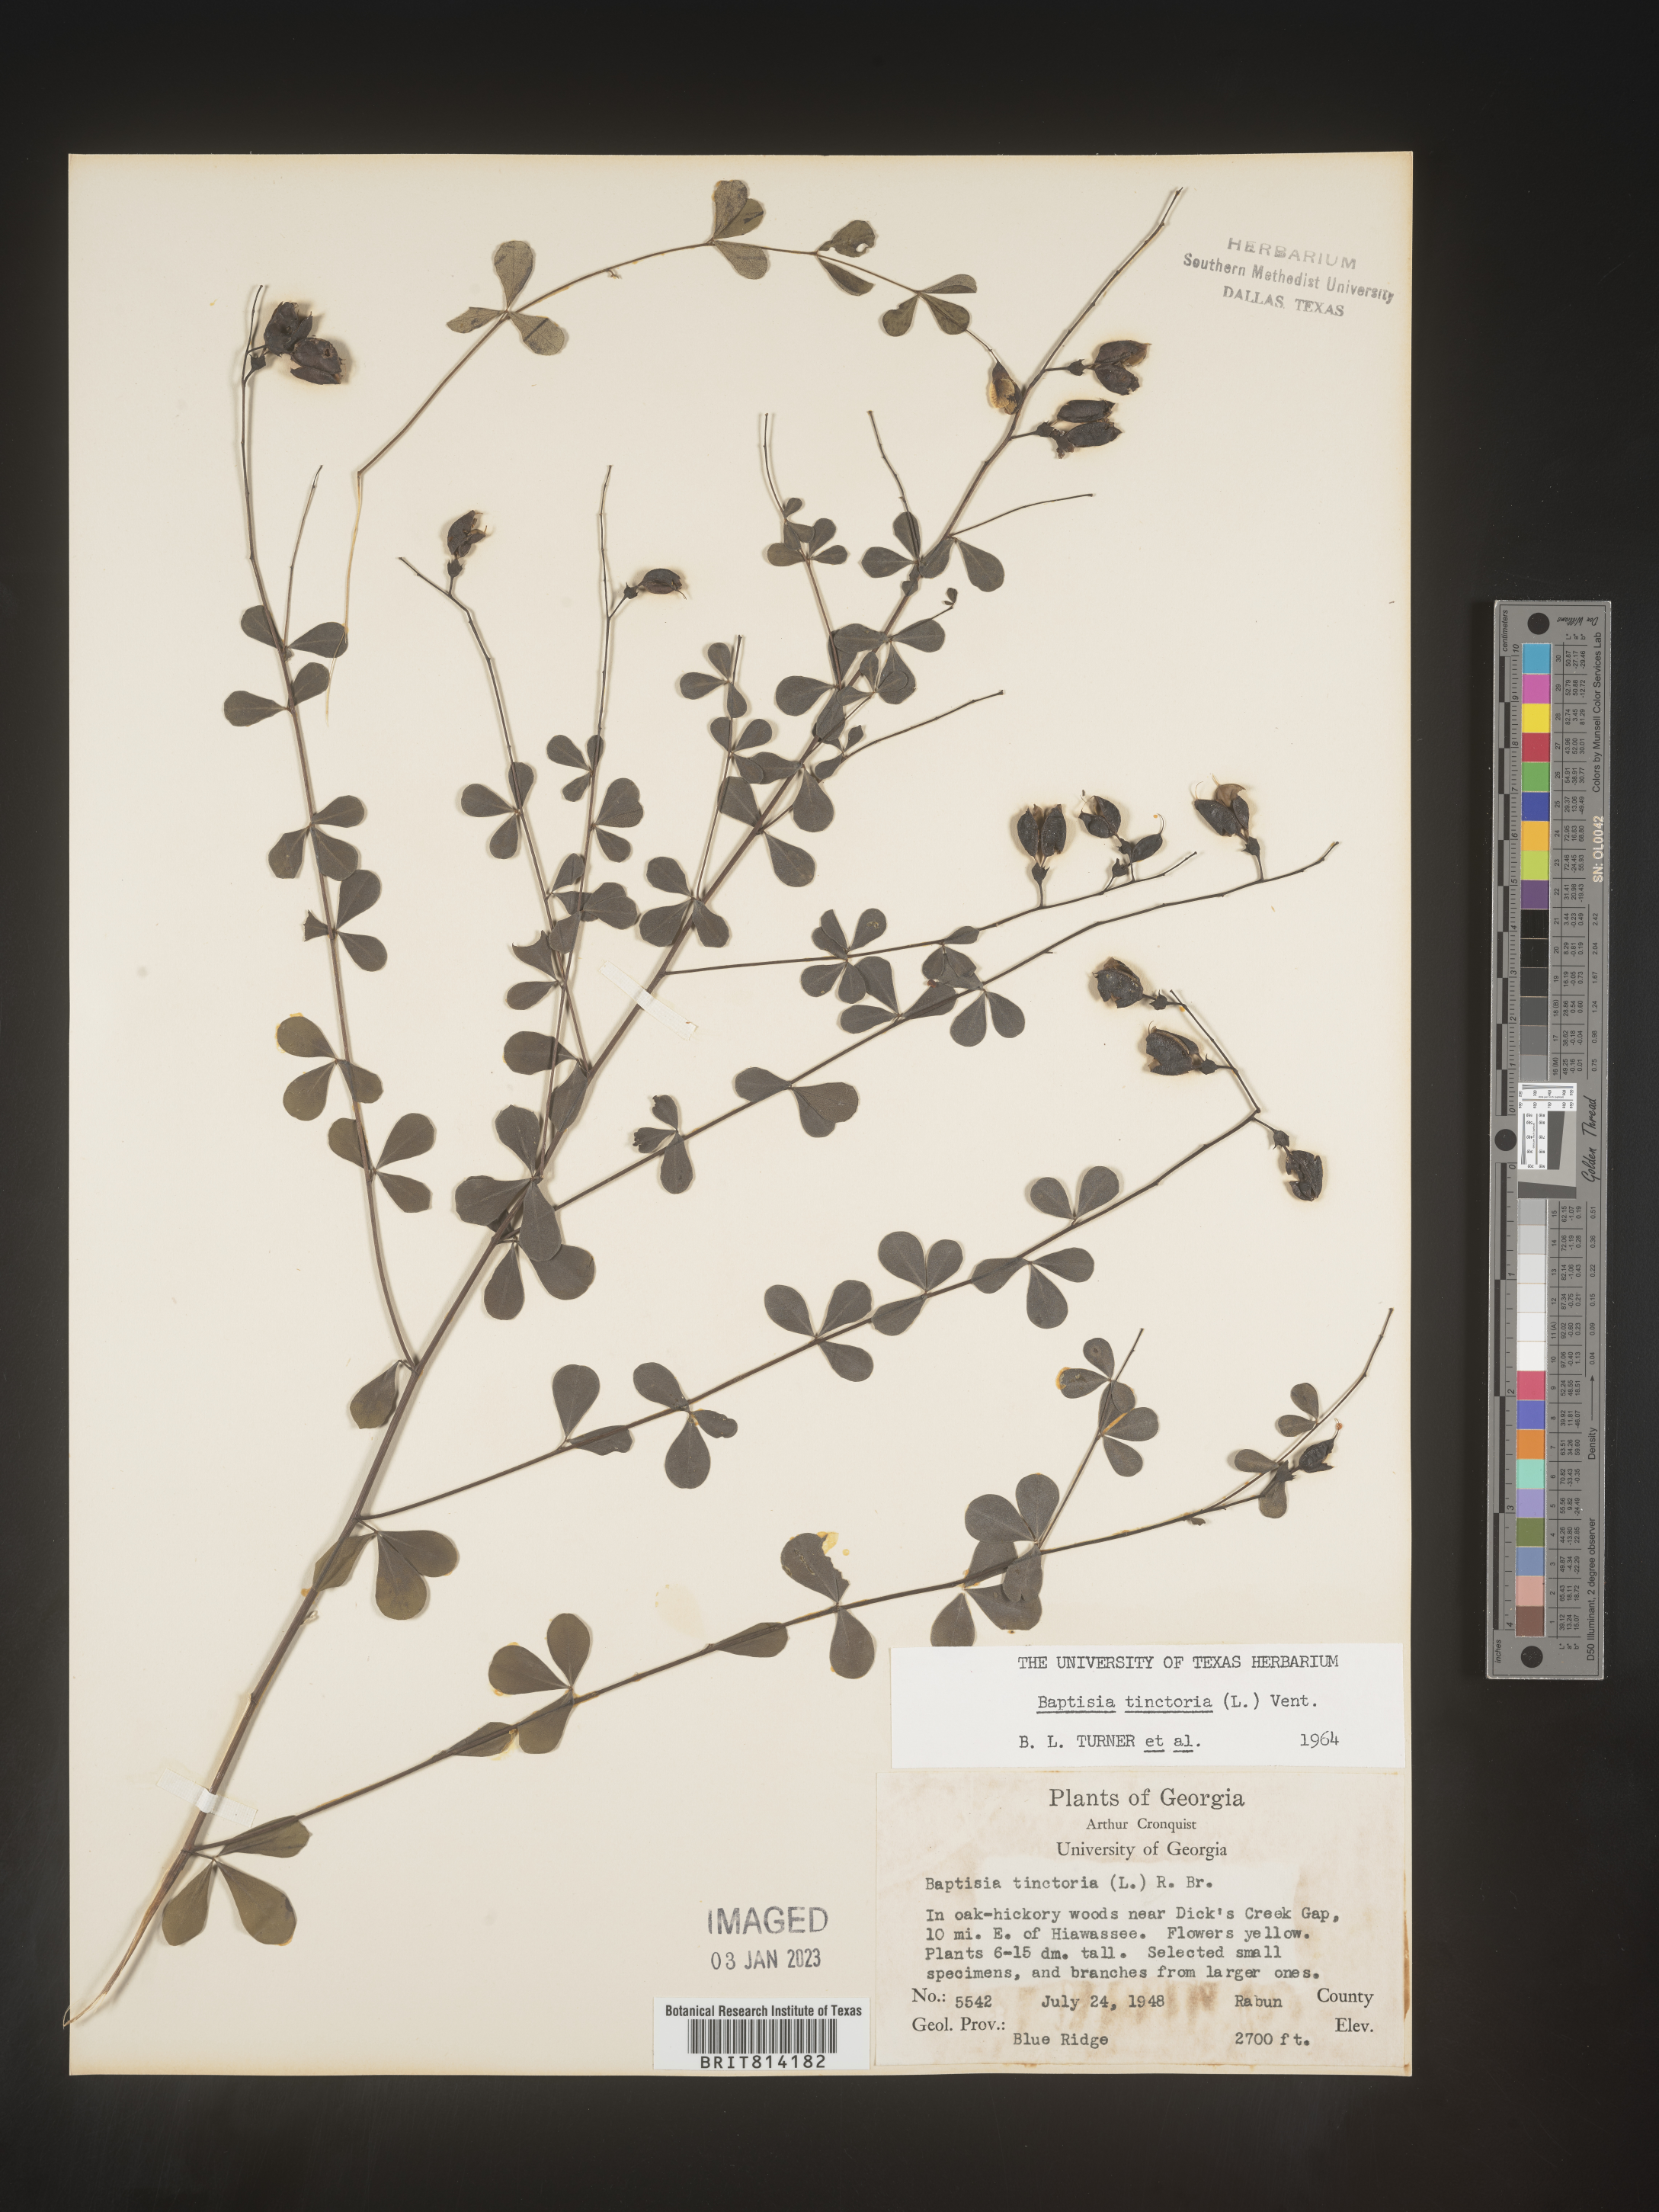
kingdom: Plantae
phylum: Tracheophyta
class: Magnoliopsida
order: Fabales
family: Fabaceae
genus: Baptisia
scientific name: Baptisia tinctoria
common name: Wild indigo
